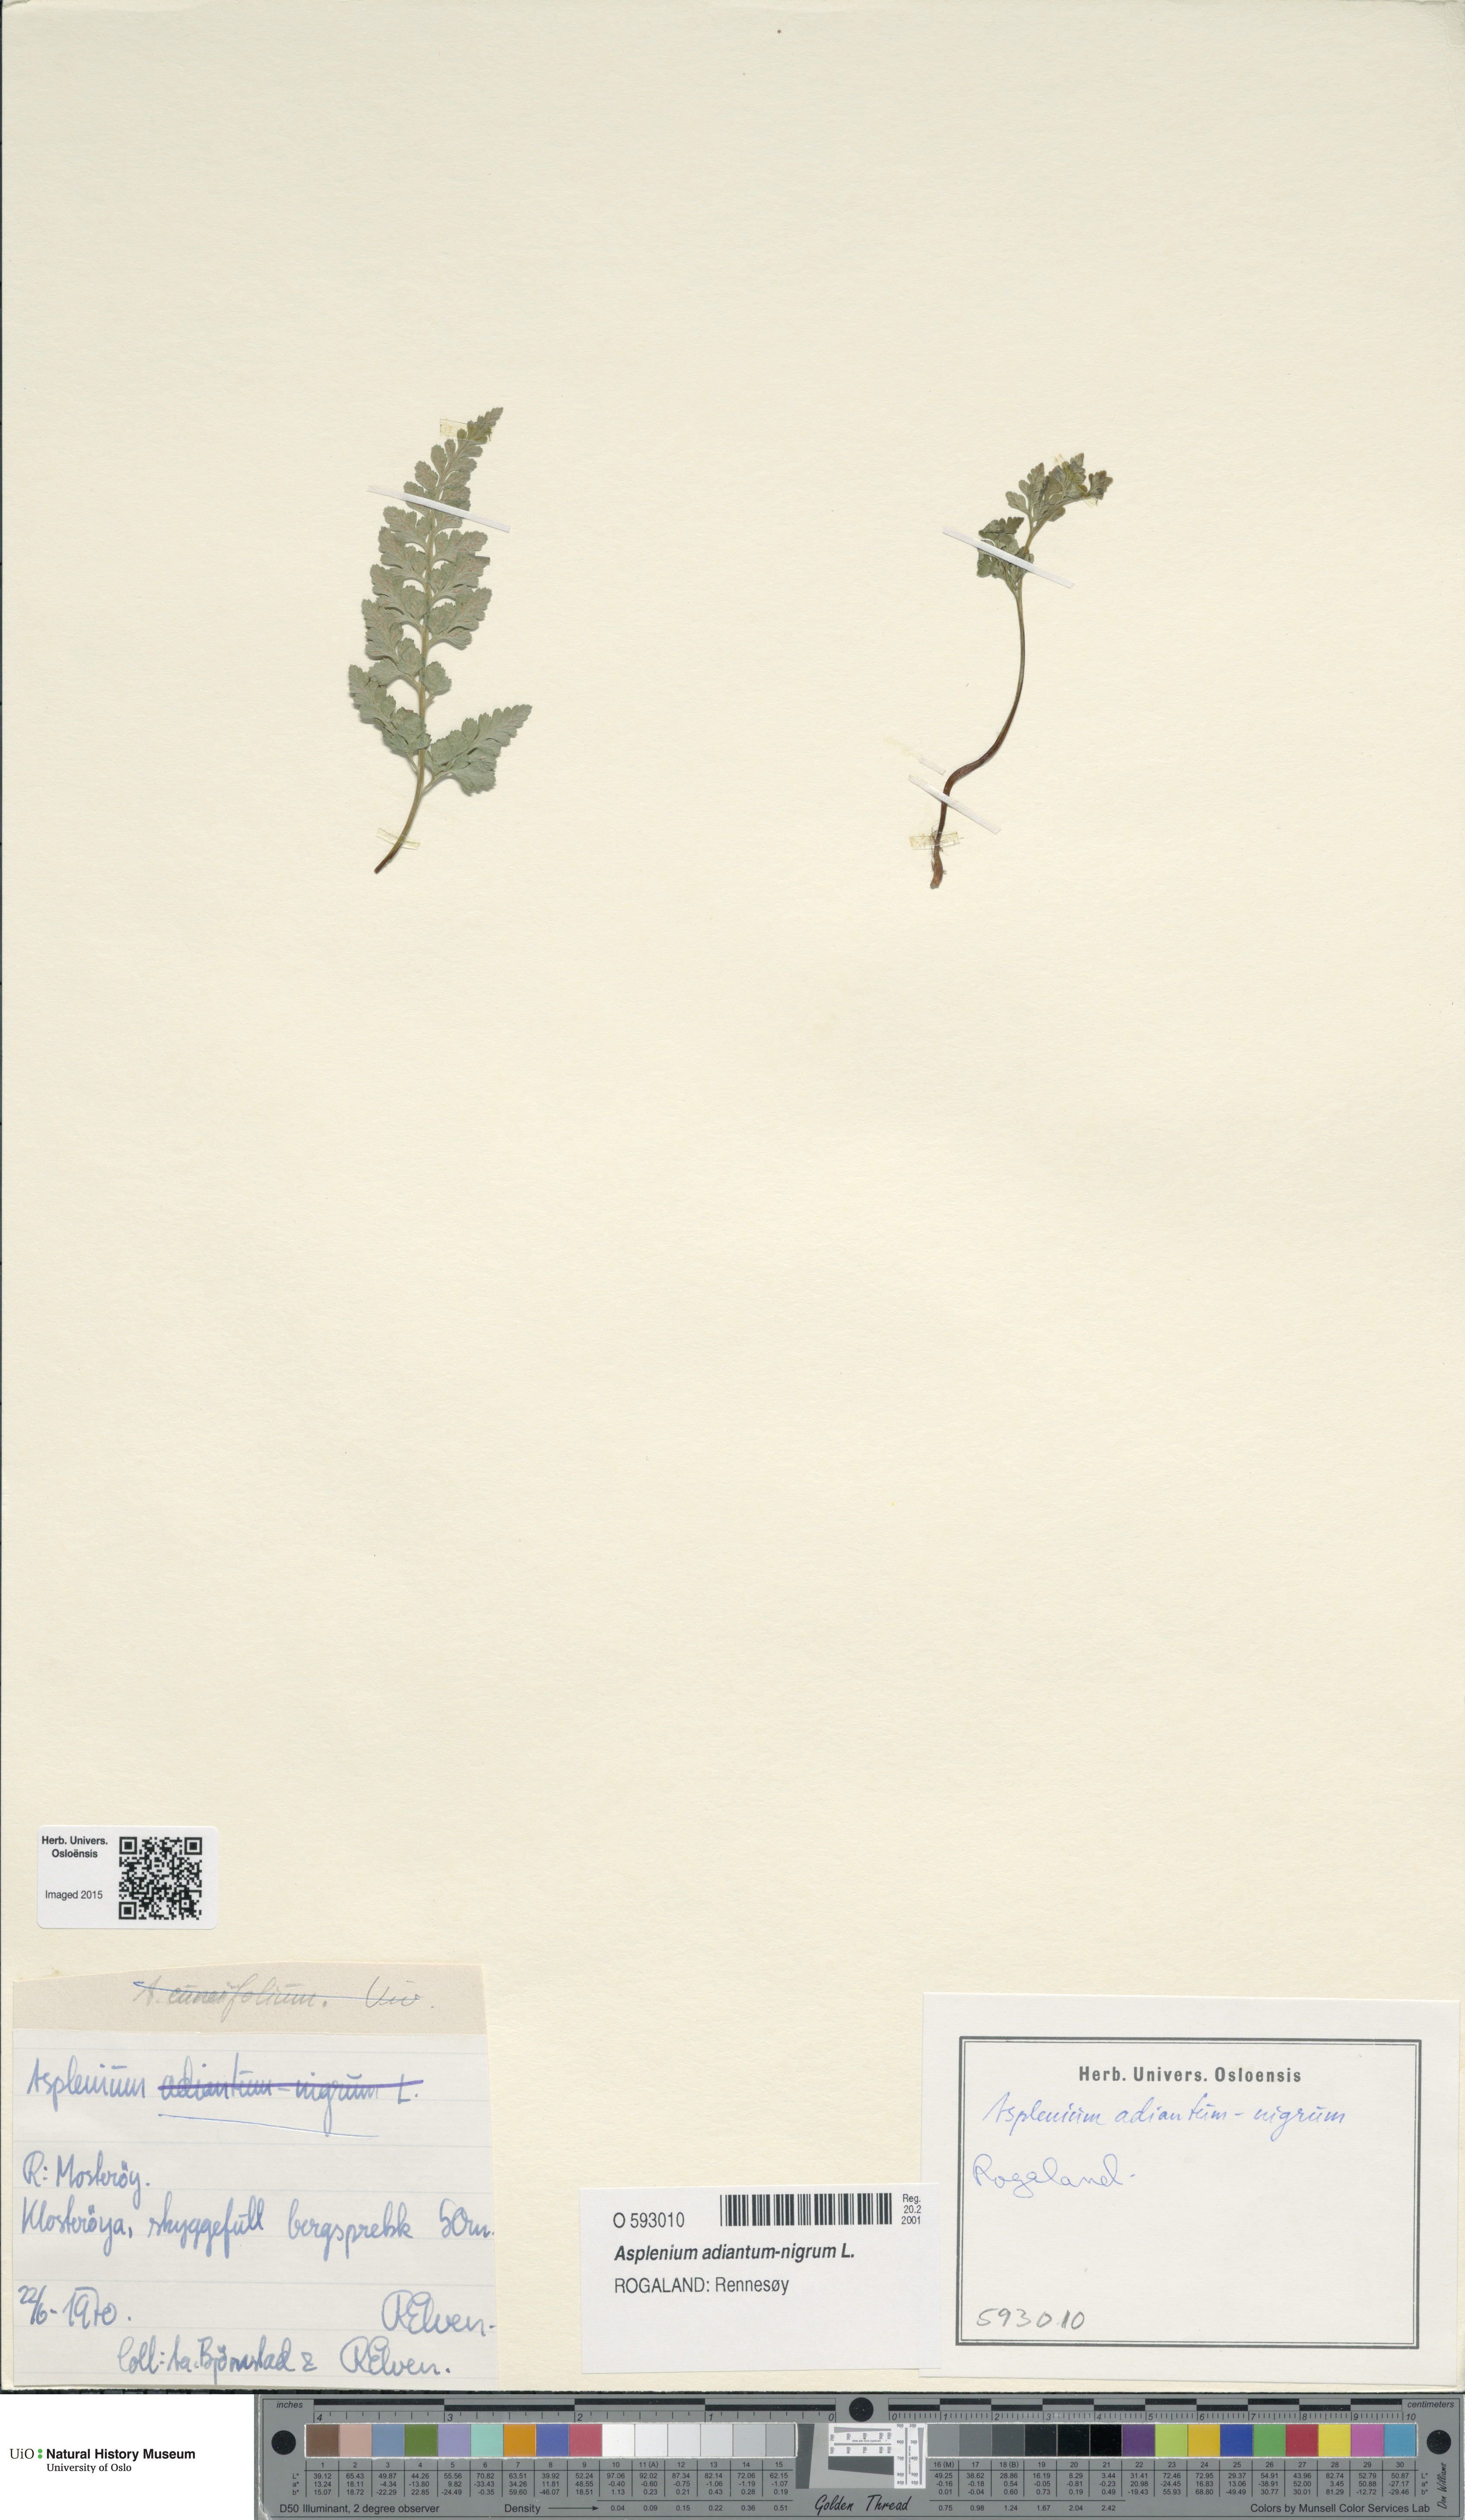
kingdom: Plantae
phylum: Tracheophyta
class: Polypodiopsida
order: Polypodiales
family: Aspleniaceae
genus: Asplenium
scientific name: Asplenium adiantum-nigrum
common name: Black spleenwort
